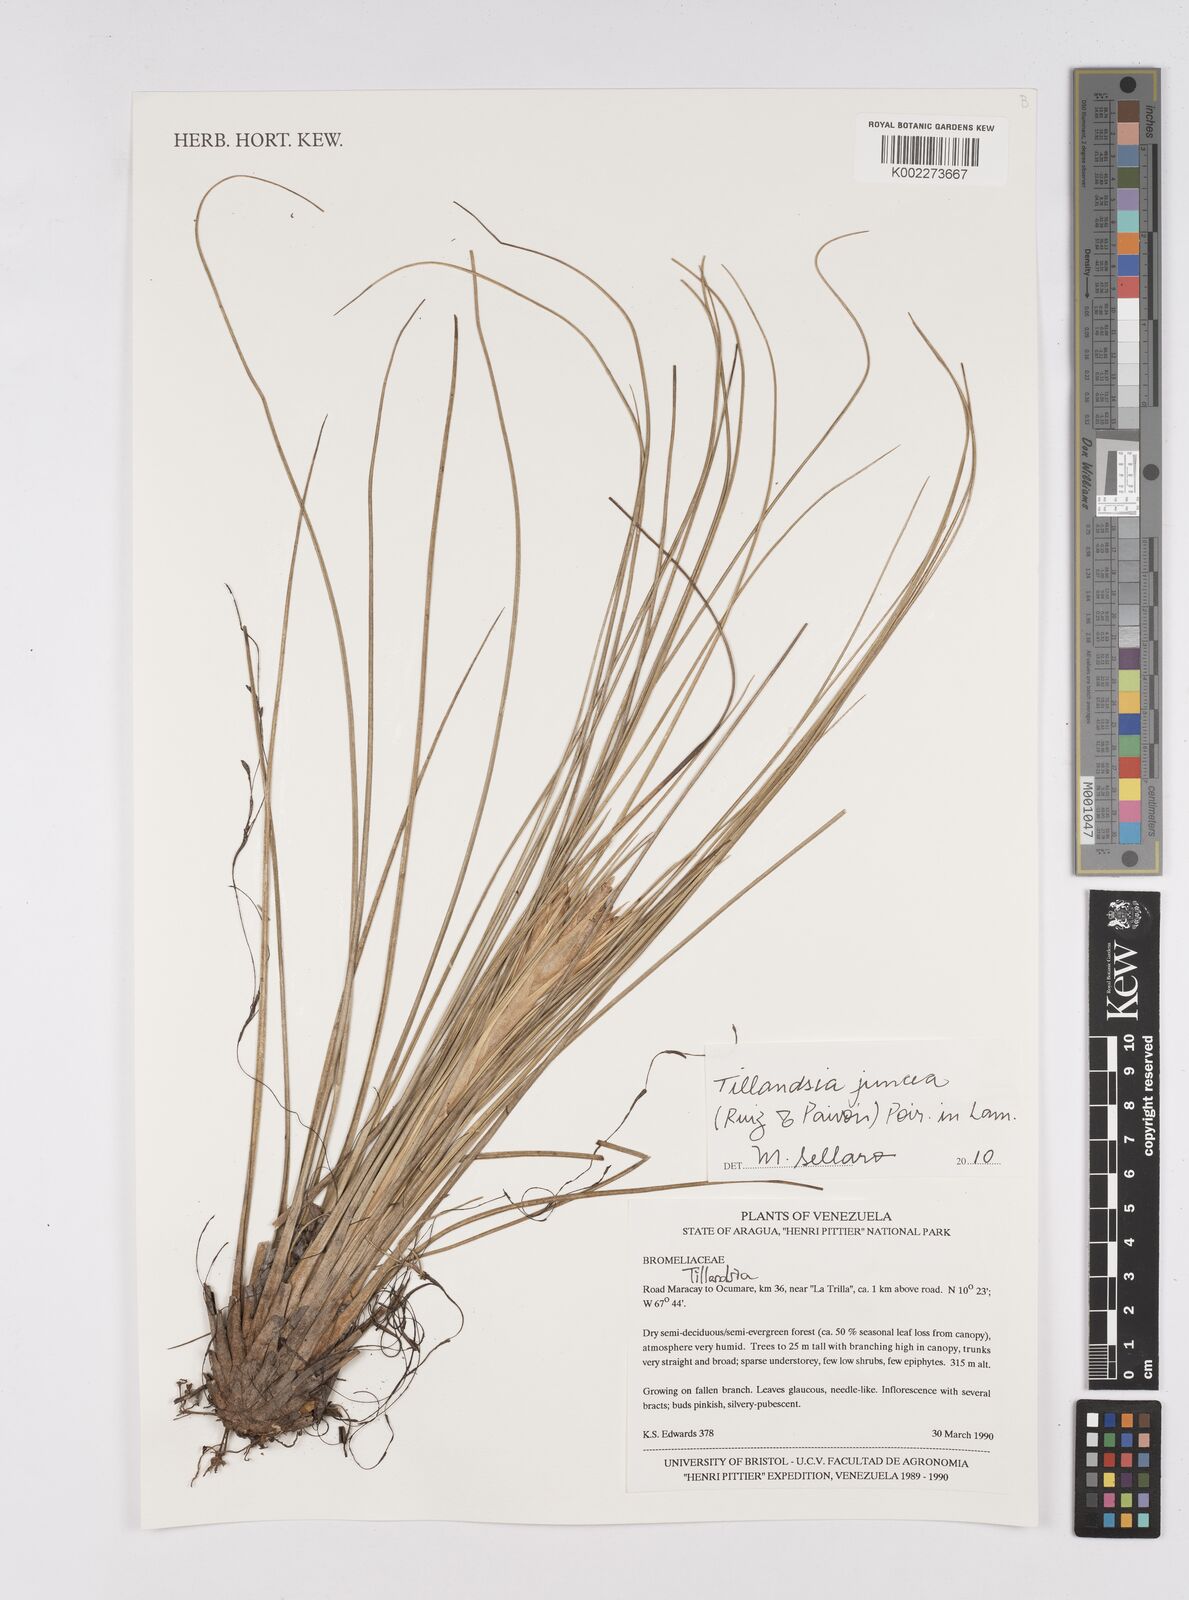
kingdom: Plantae
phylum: Tracheophyta
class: Liliopsida
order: Poales
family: Bromeliaceae
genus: Tillandsia
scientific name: Tillandsia juncea
